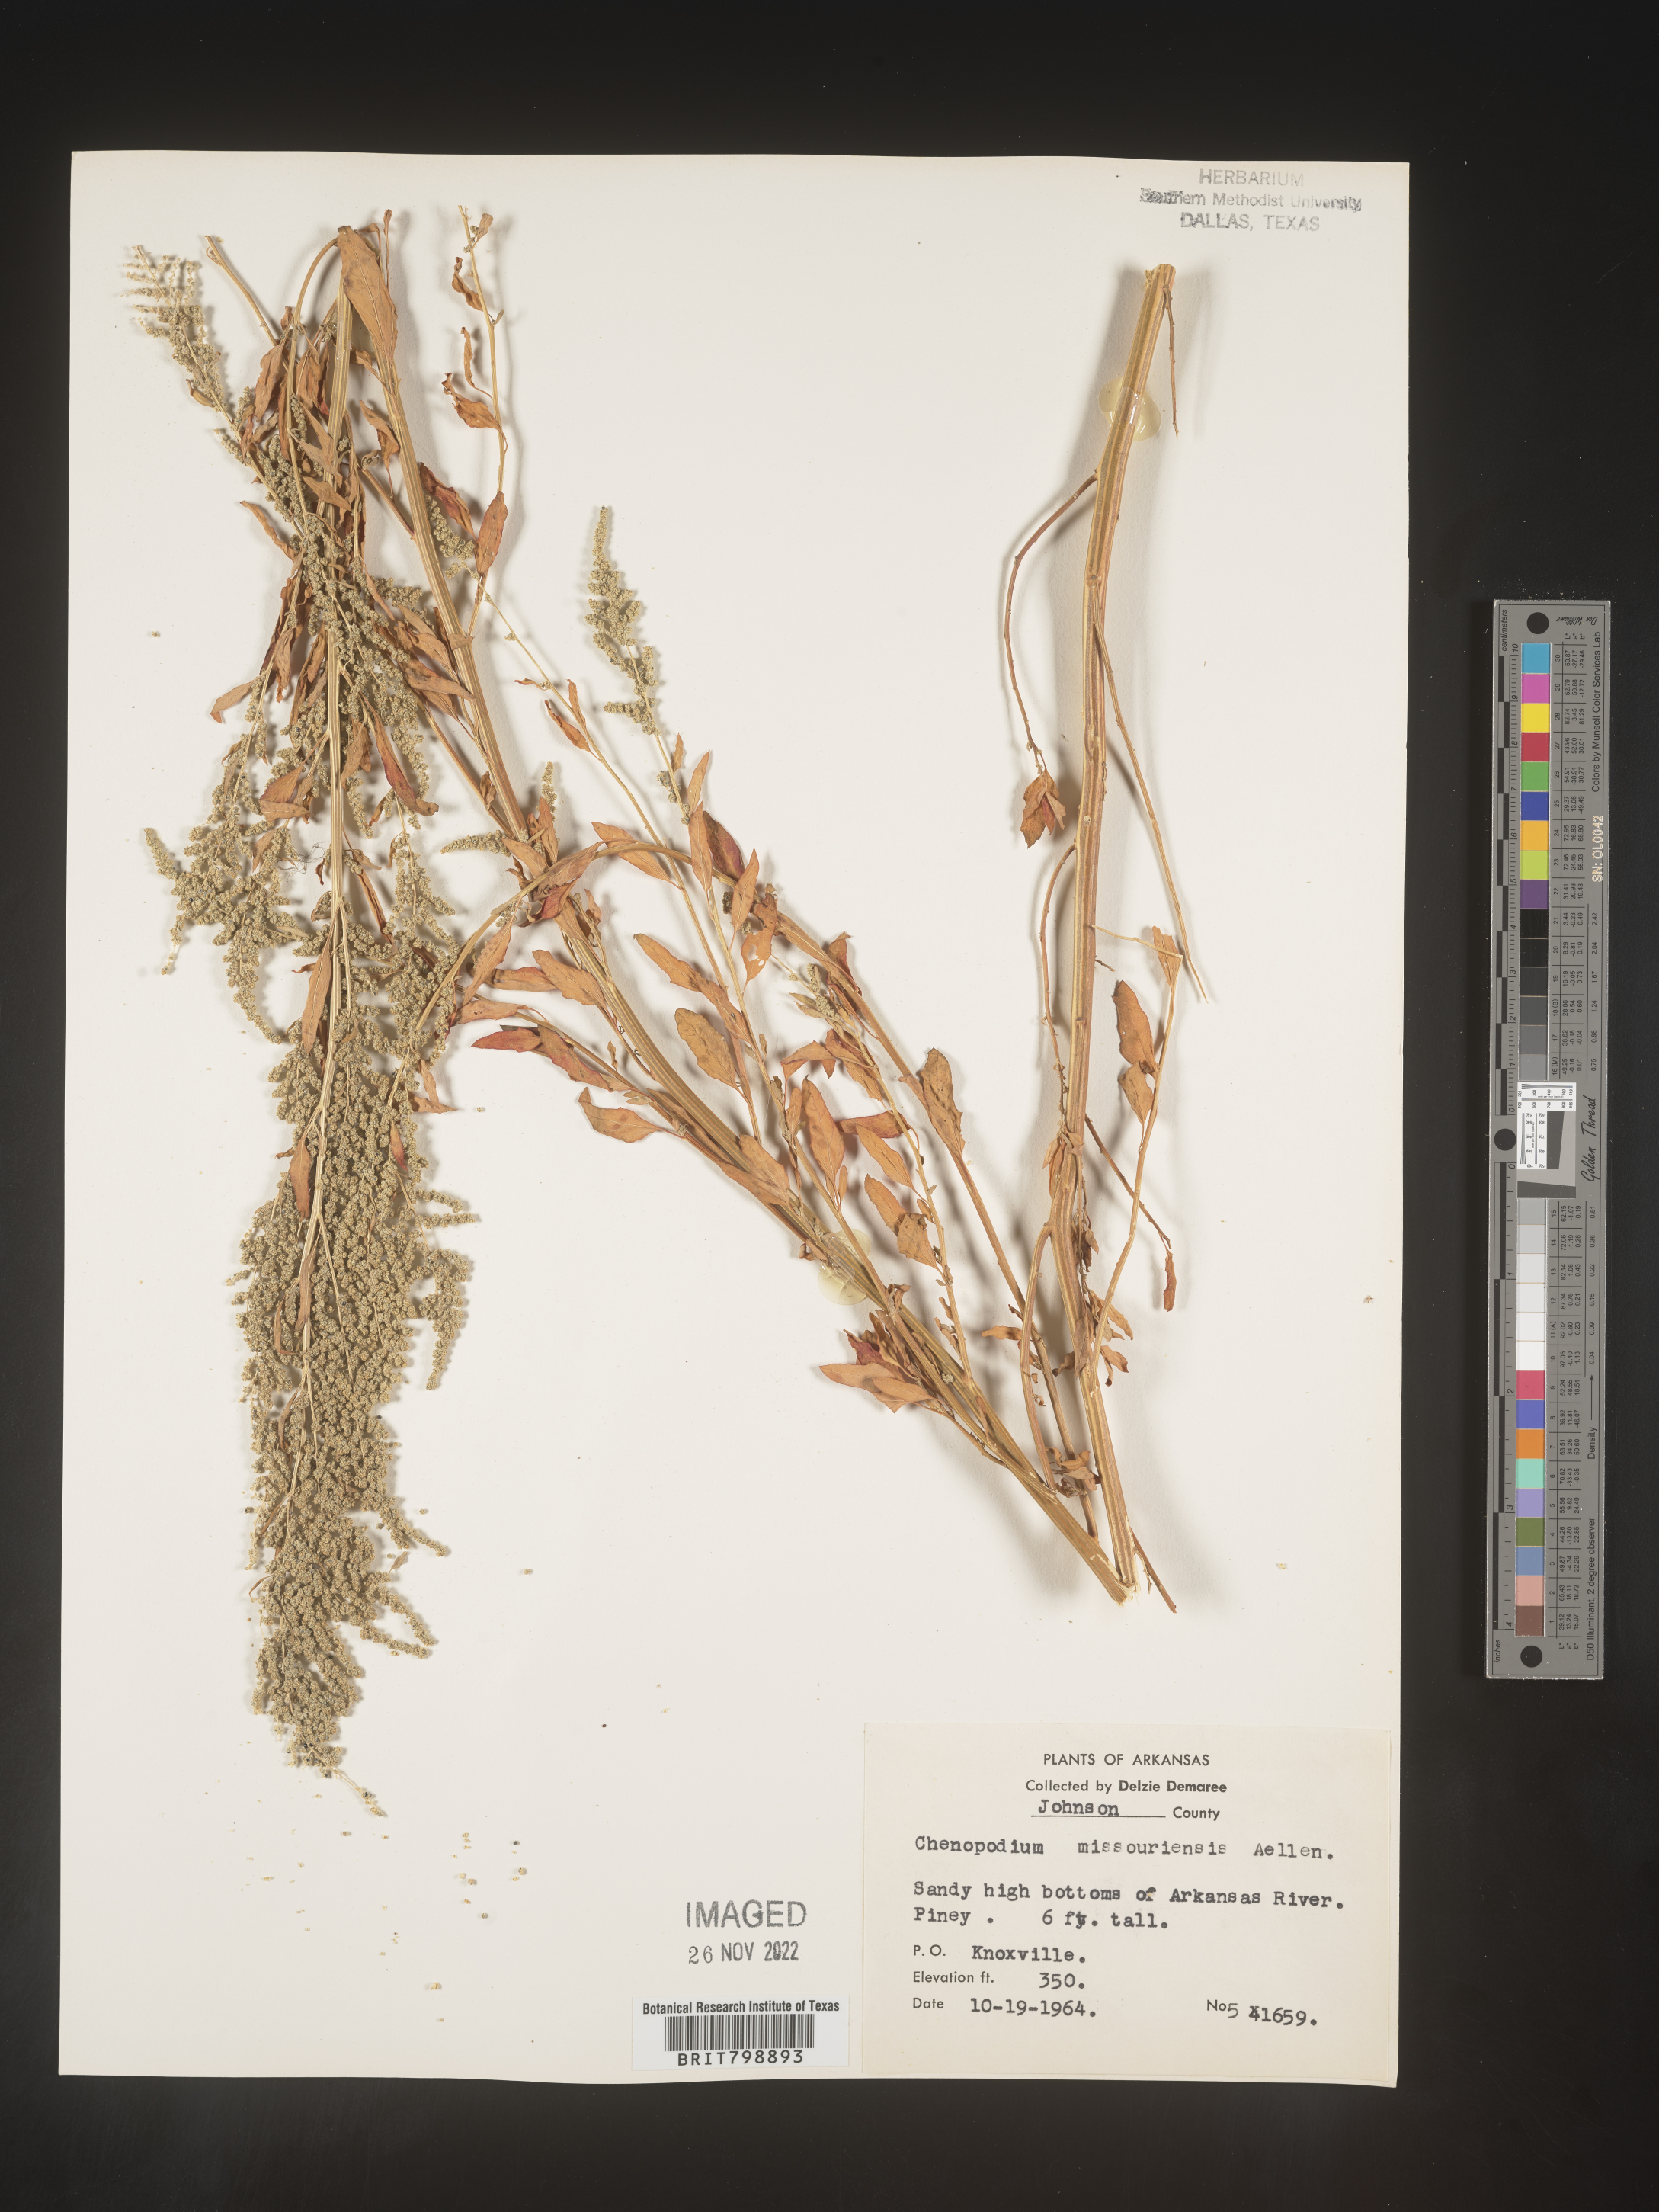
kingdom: Plantae
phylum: Tracheophyta
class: Magnoliopsida
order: Caryophyllales
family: Amaranthaceae
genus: Chenopodium
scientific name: Chenopodium album
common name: Fat-hen
